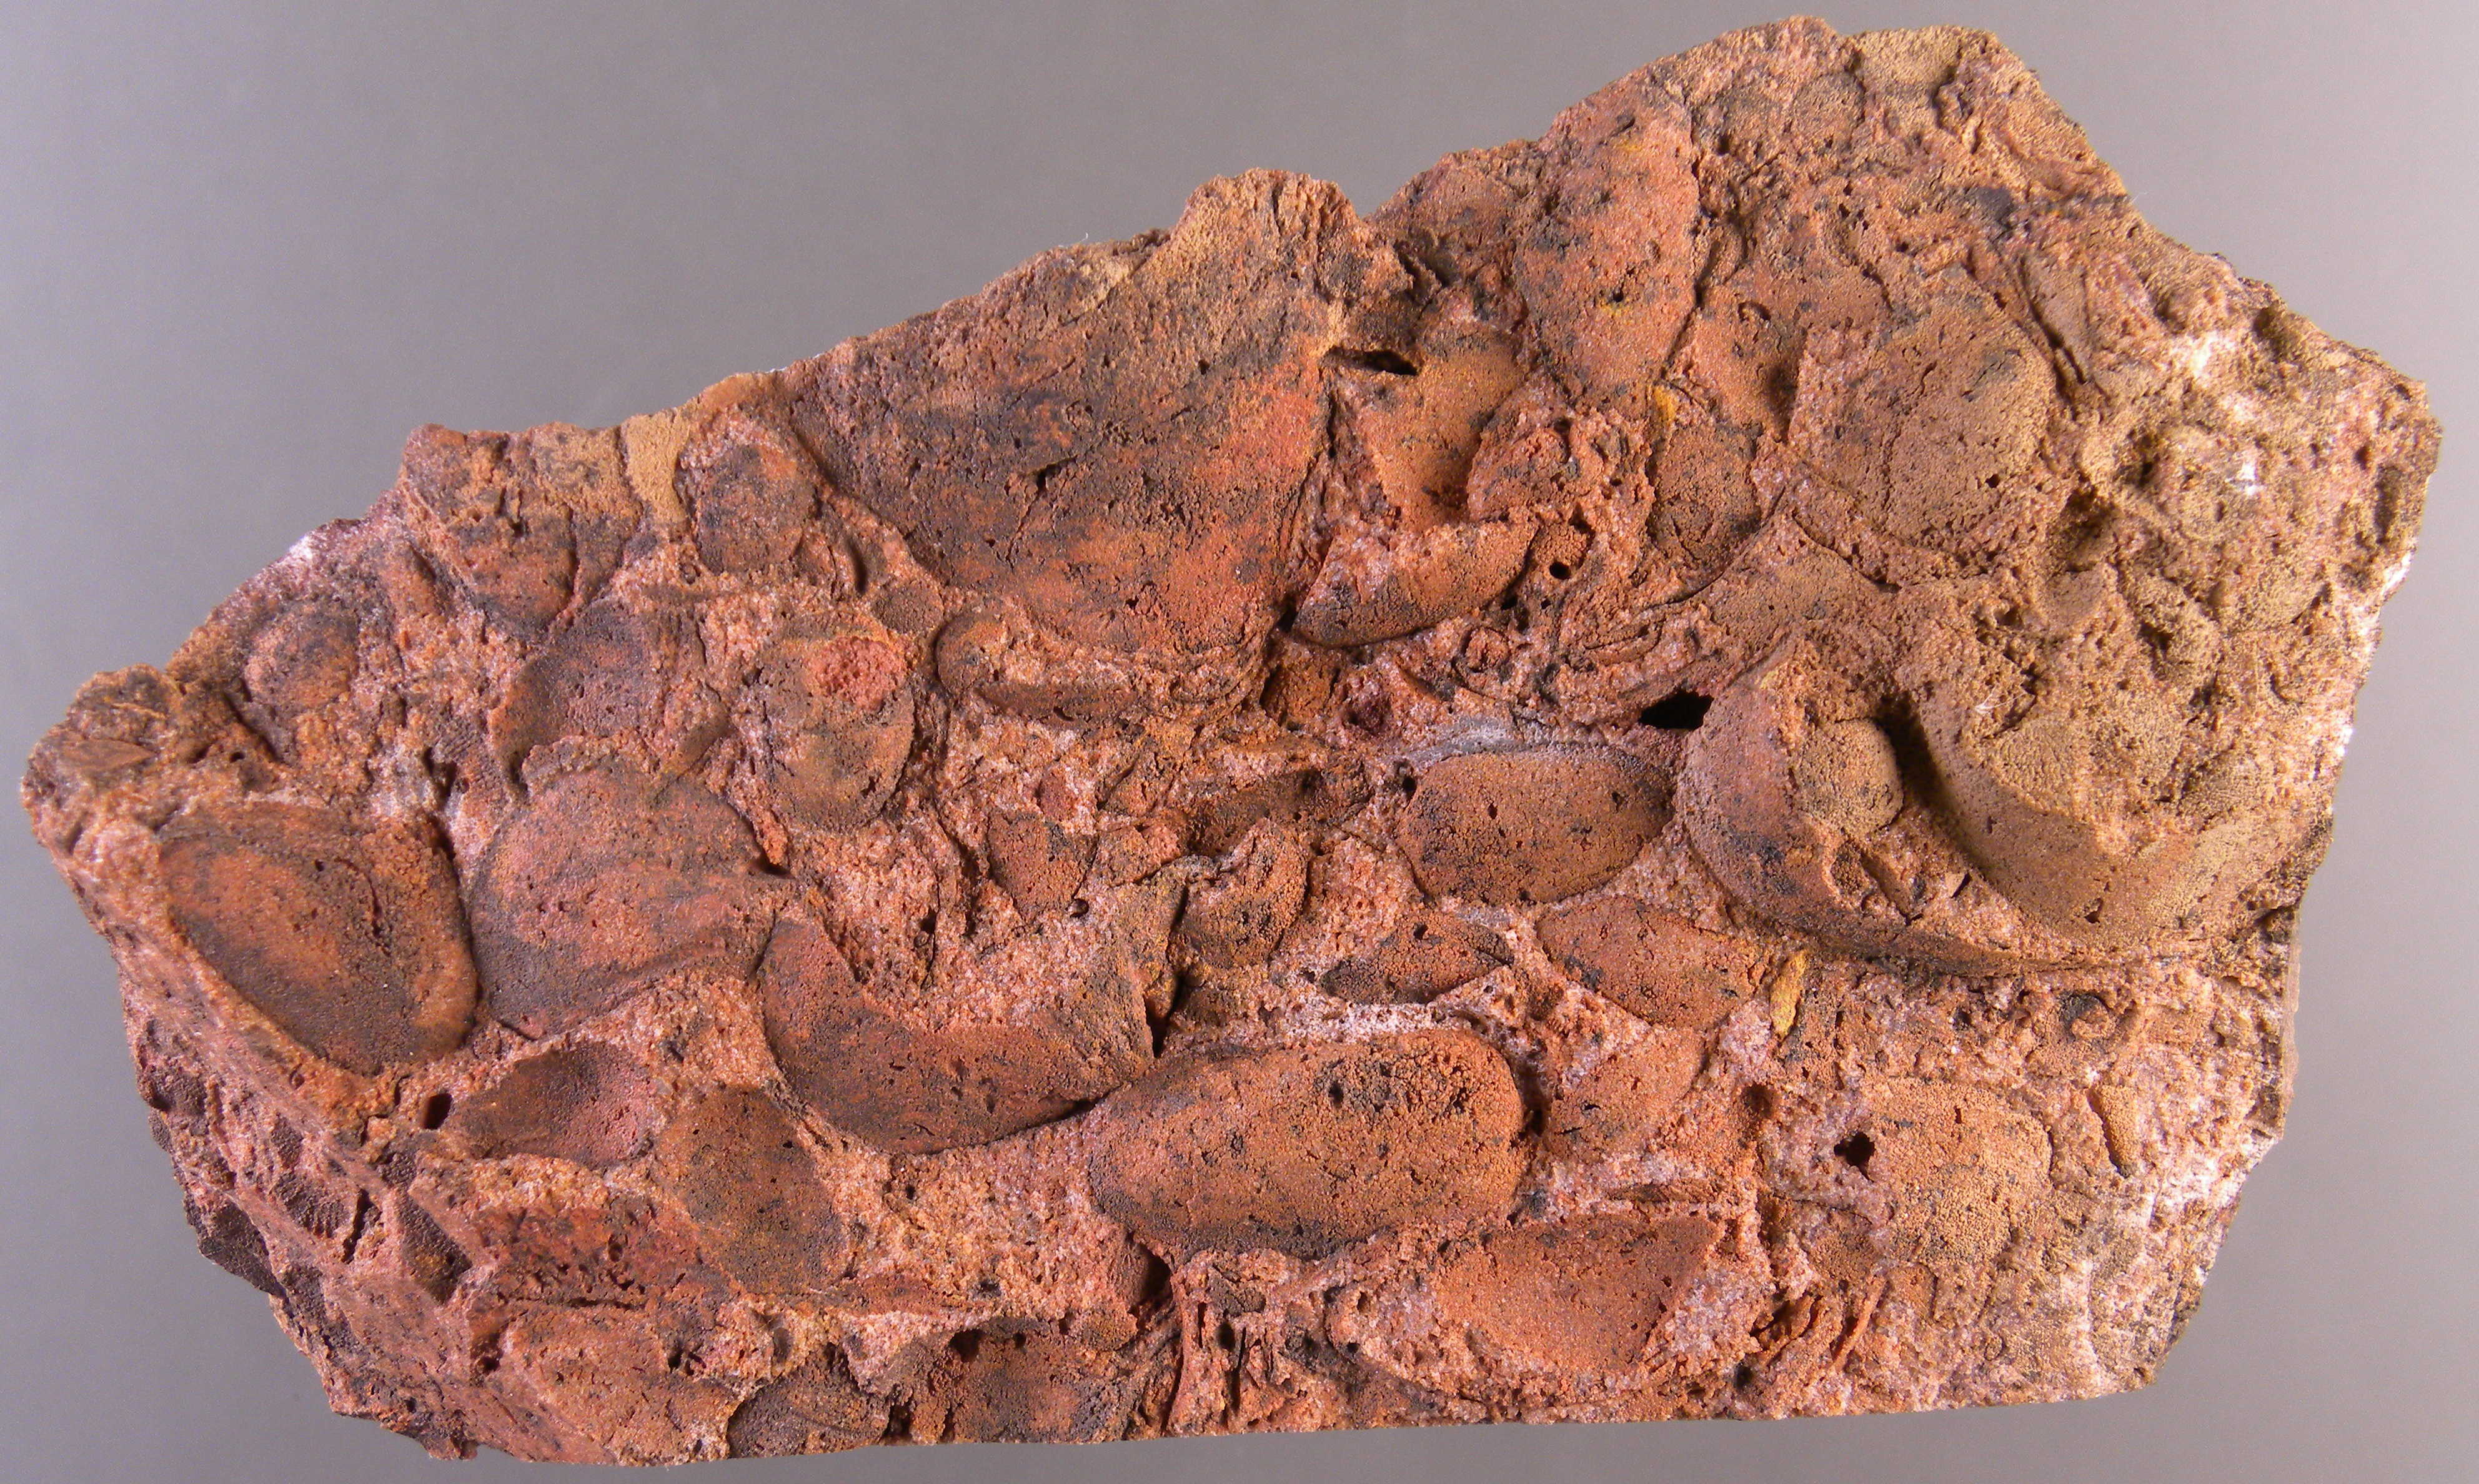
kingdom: Animalia
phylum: Mollusca
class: Bivalvia
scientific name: Bivalvia
